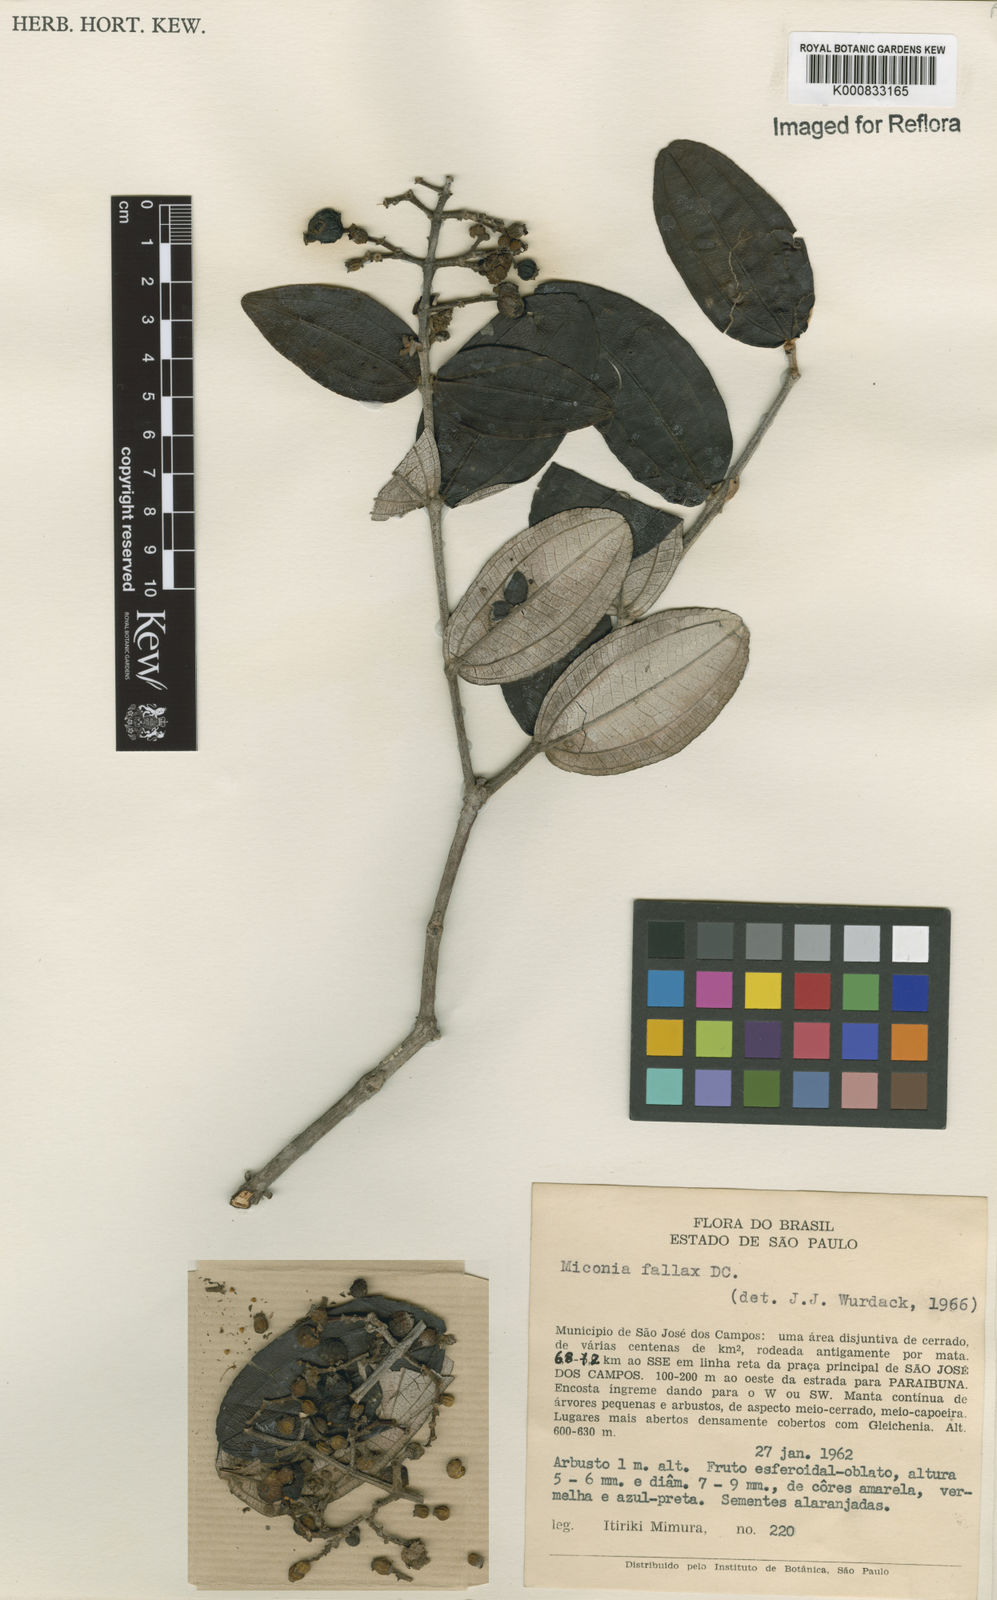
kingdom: Plantae
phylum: Tracheophyta
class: Magnoliopsida
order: Myrtales
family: Melastomataceae
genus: Miconia
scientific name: Miconia fallax
